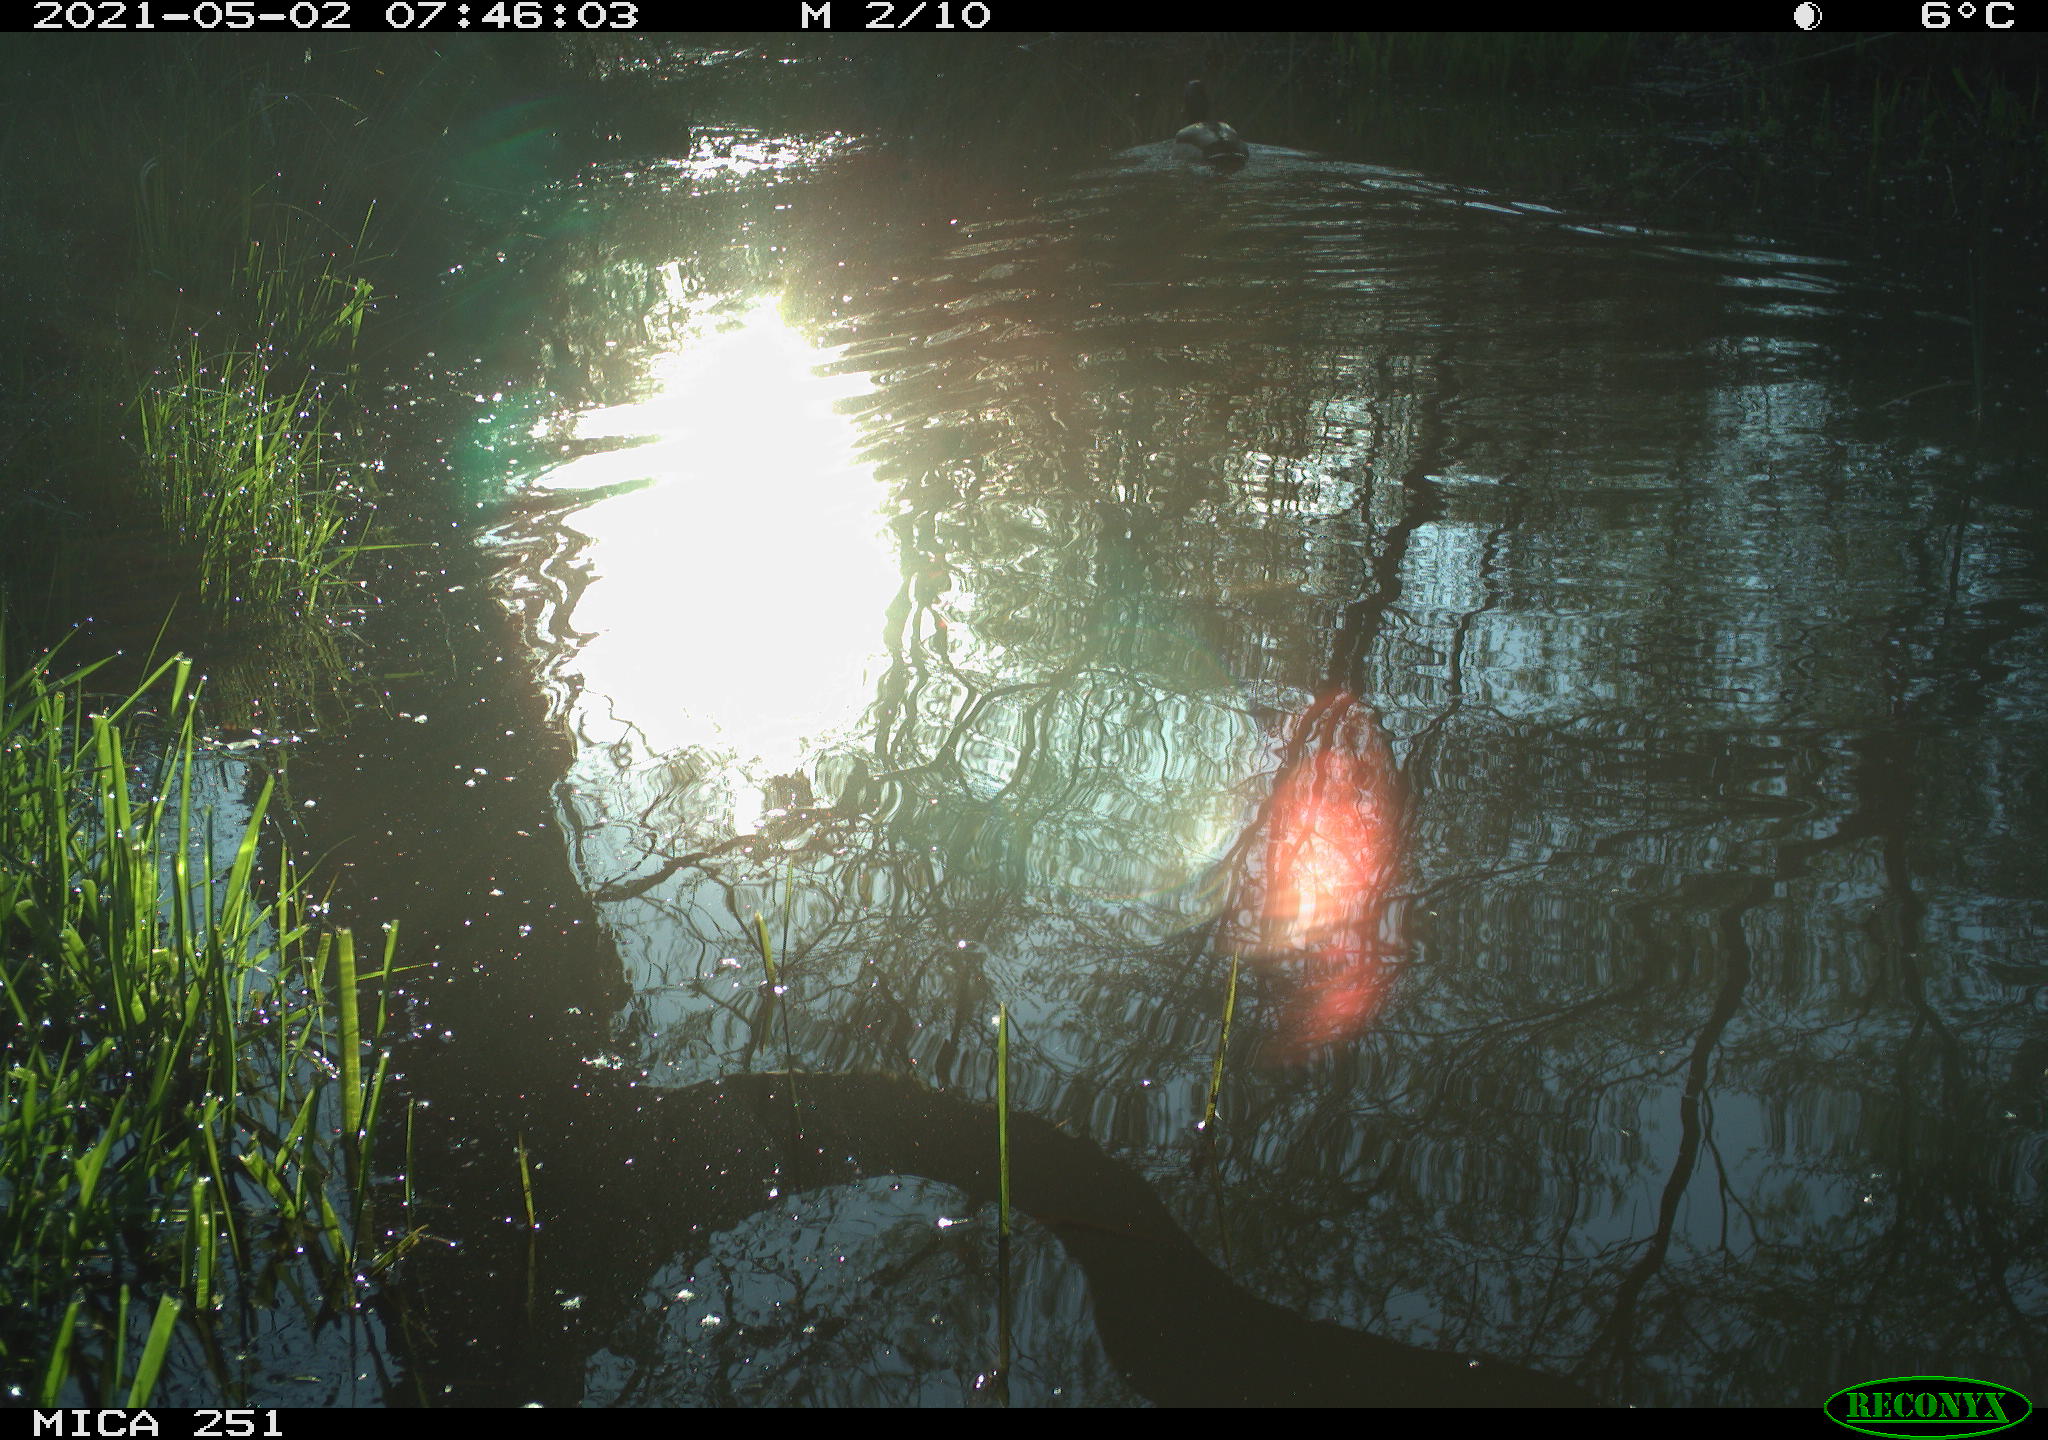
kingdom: Animalia
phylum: Chordata
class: Aves
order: Anseriformes
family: Anatidae
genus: Anas
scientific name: Anas platyrhynchos
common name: Mallard
